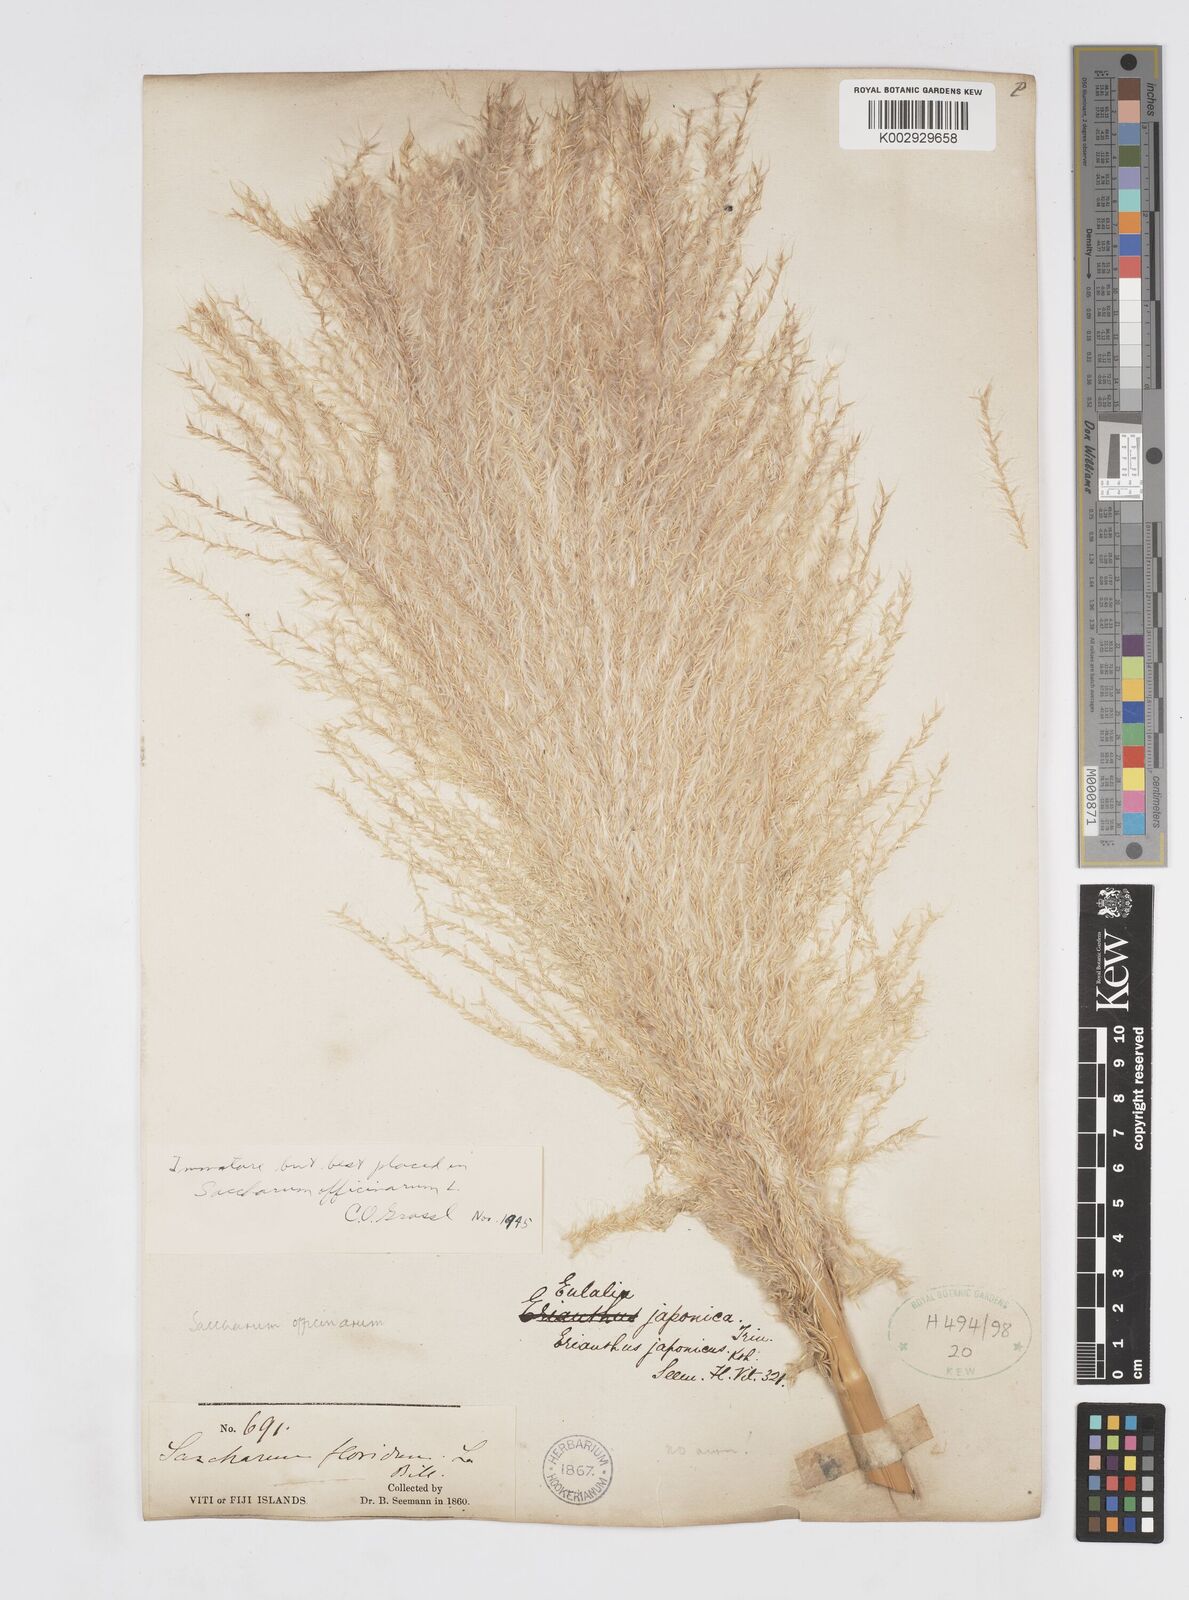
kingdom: Plantae
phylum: Tracheophyta
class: Liliopsida
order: Poales
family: Poaceae
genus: Saccharum
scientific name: Saccharum officinarum
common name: Sugarcane
